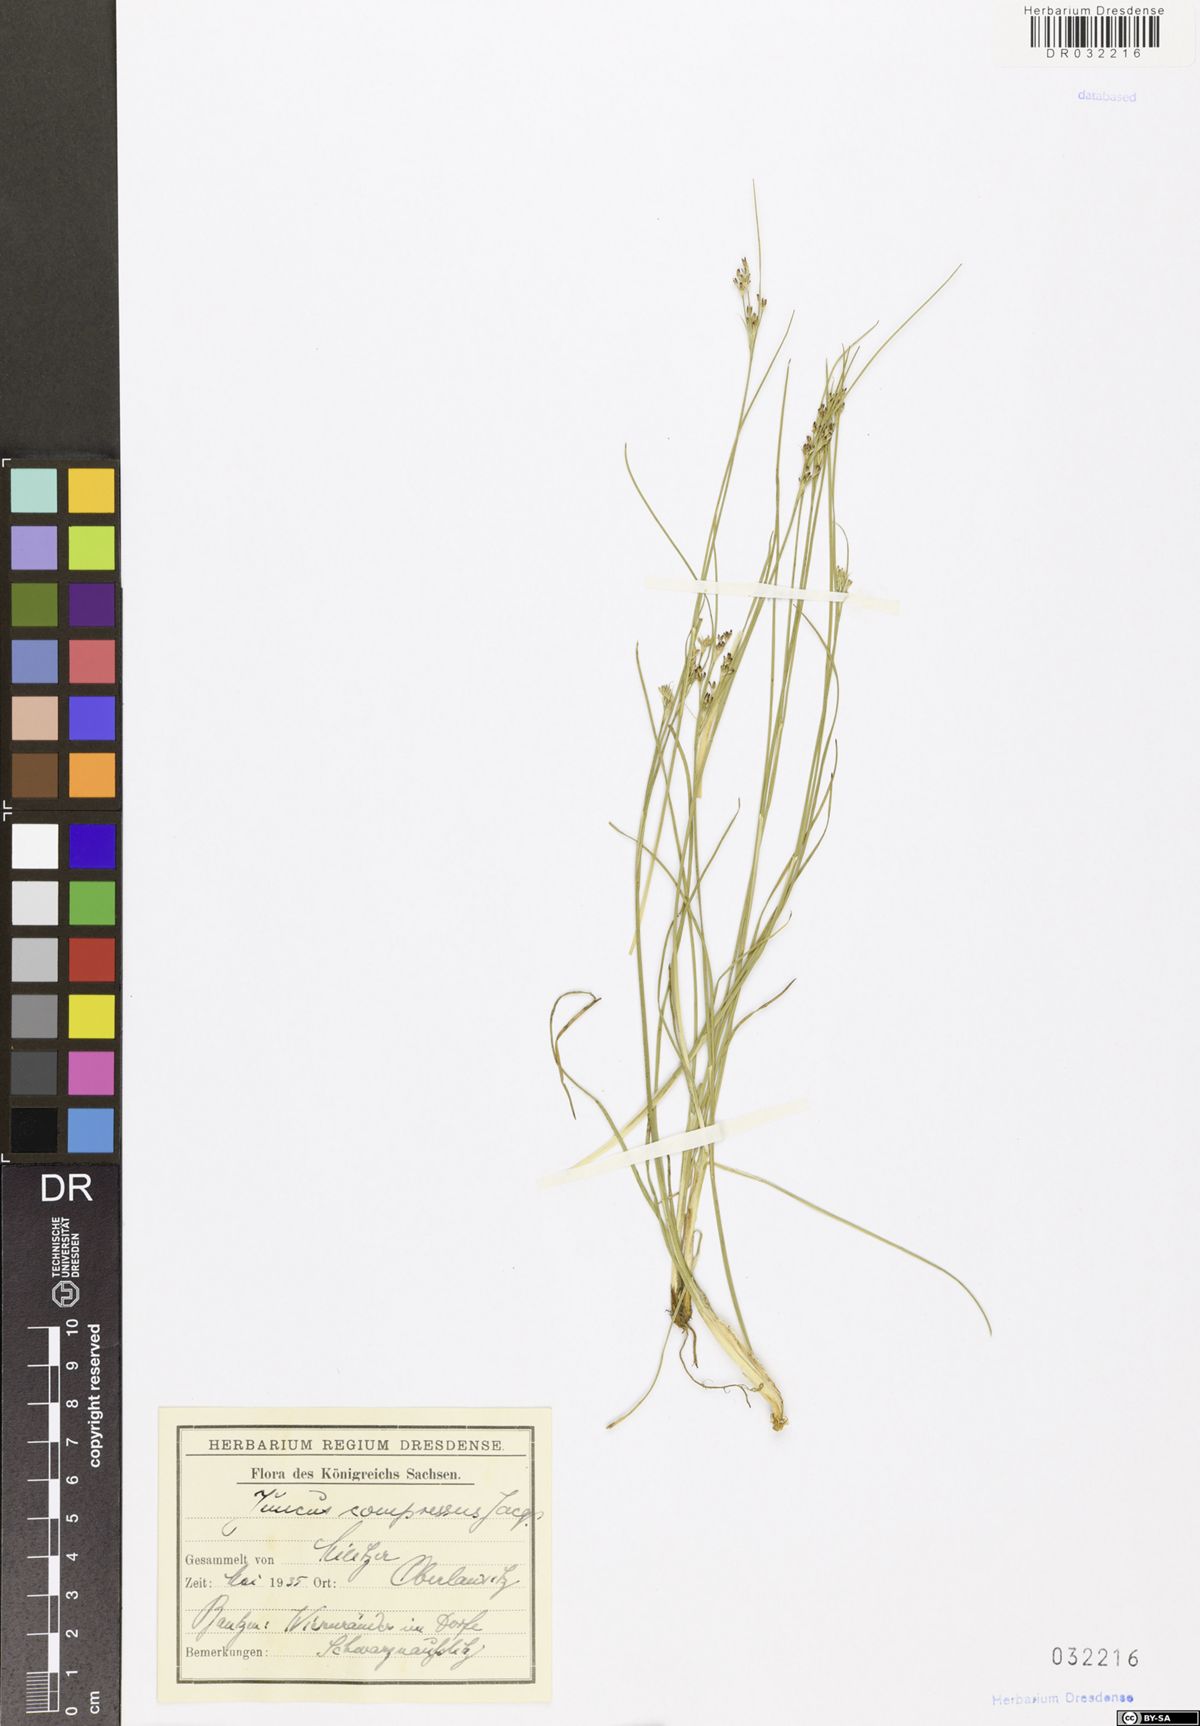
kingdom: Plantae
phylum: Tracheophyta
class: Liliopsida
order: Poales
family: Juncaceae
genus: Juncus
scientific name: Juncus compressus
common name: Round-fruited rush
